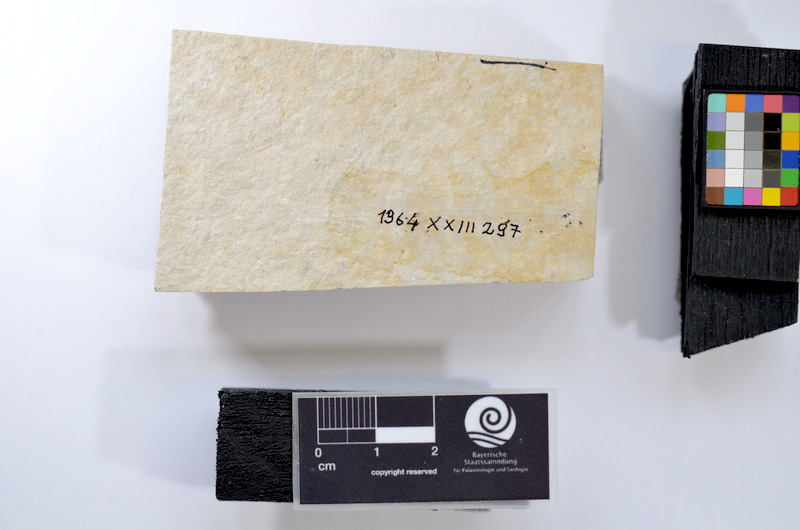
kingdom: Animalia
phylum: Chordata
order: Salmoniformes
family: Orthogonikleithridae
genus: Leptolepides
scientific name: Leptolepides
